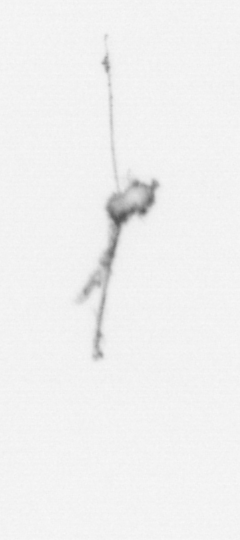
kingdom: Chromista
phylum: Ochrophyta
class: Bacillariophyceae
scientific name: Bacillariophyceae
